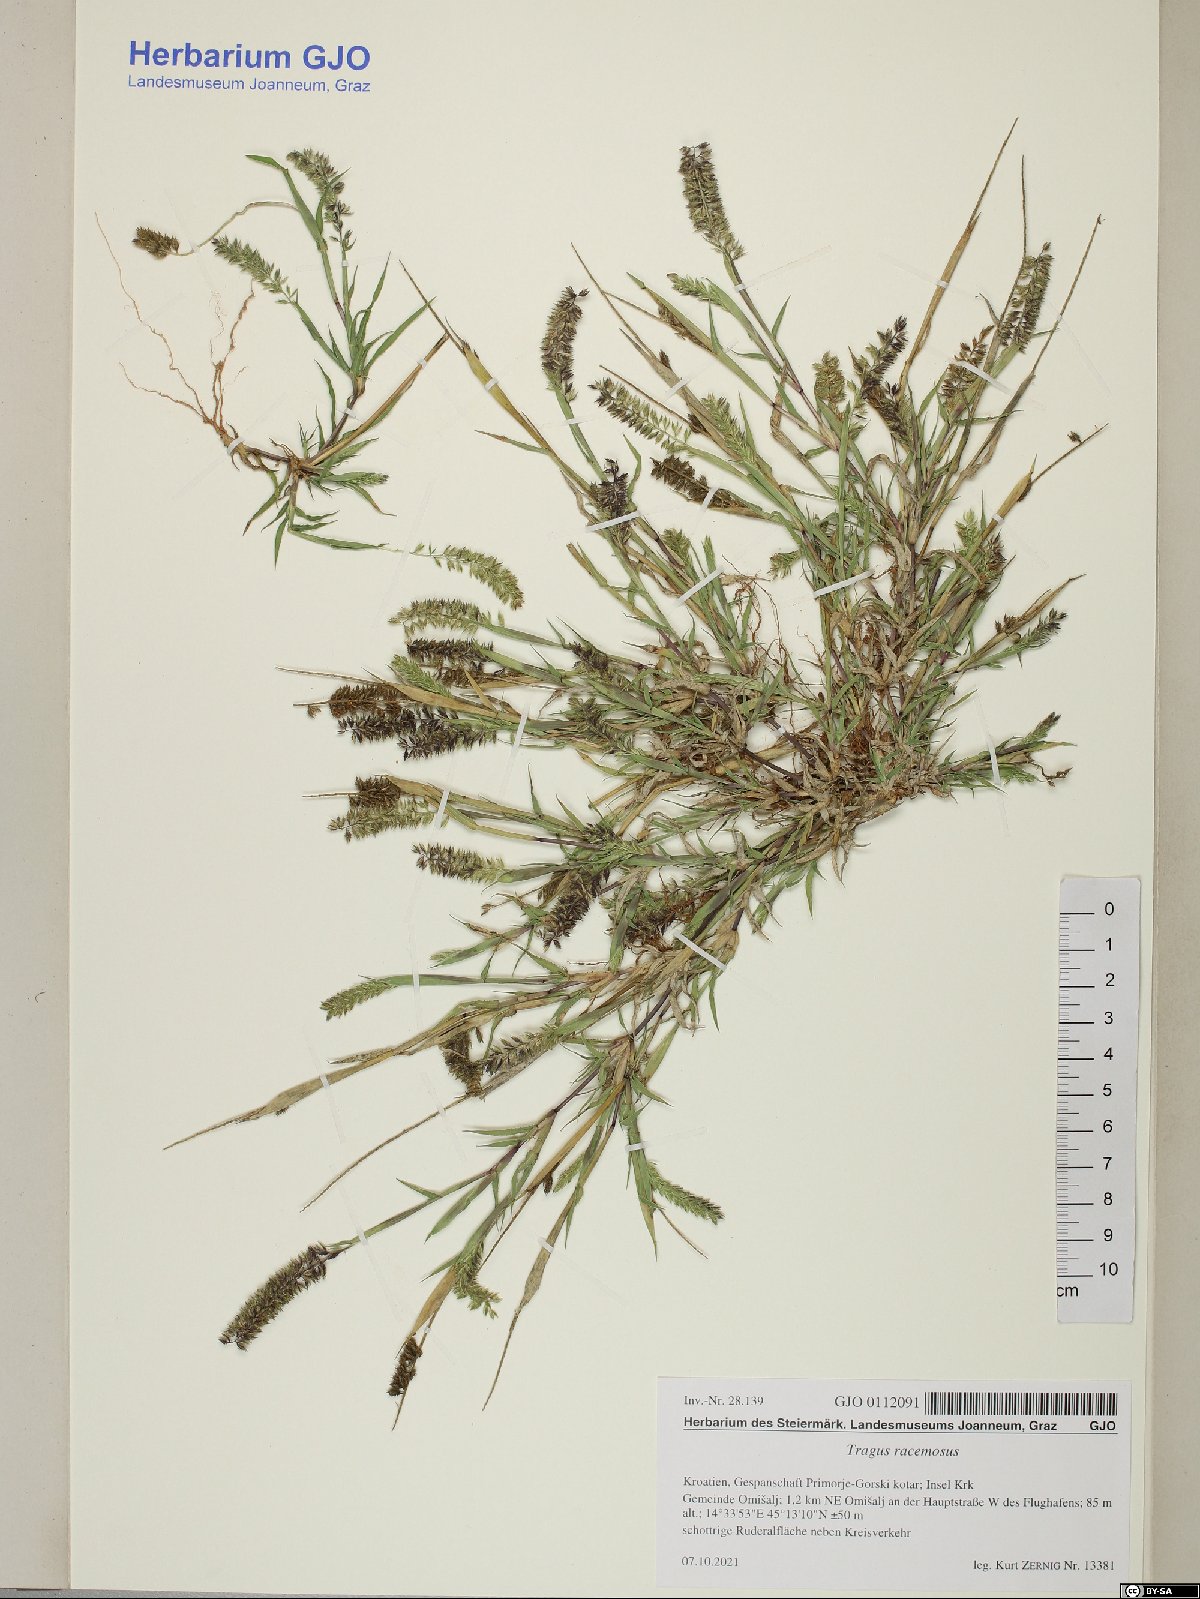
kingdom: Plantae
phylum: Tracheophyta
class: Liliopsida
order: Poales
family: Poaceae
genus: Tragus
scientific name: Tragus racemosus
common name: European bur-grass
